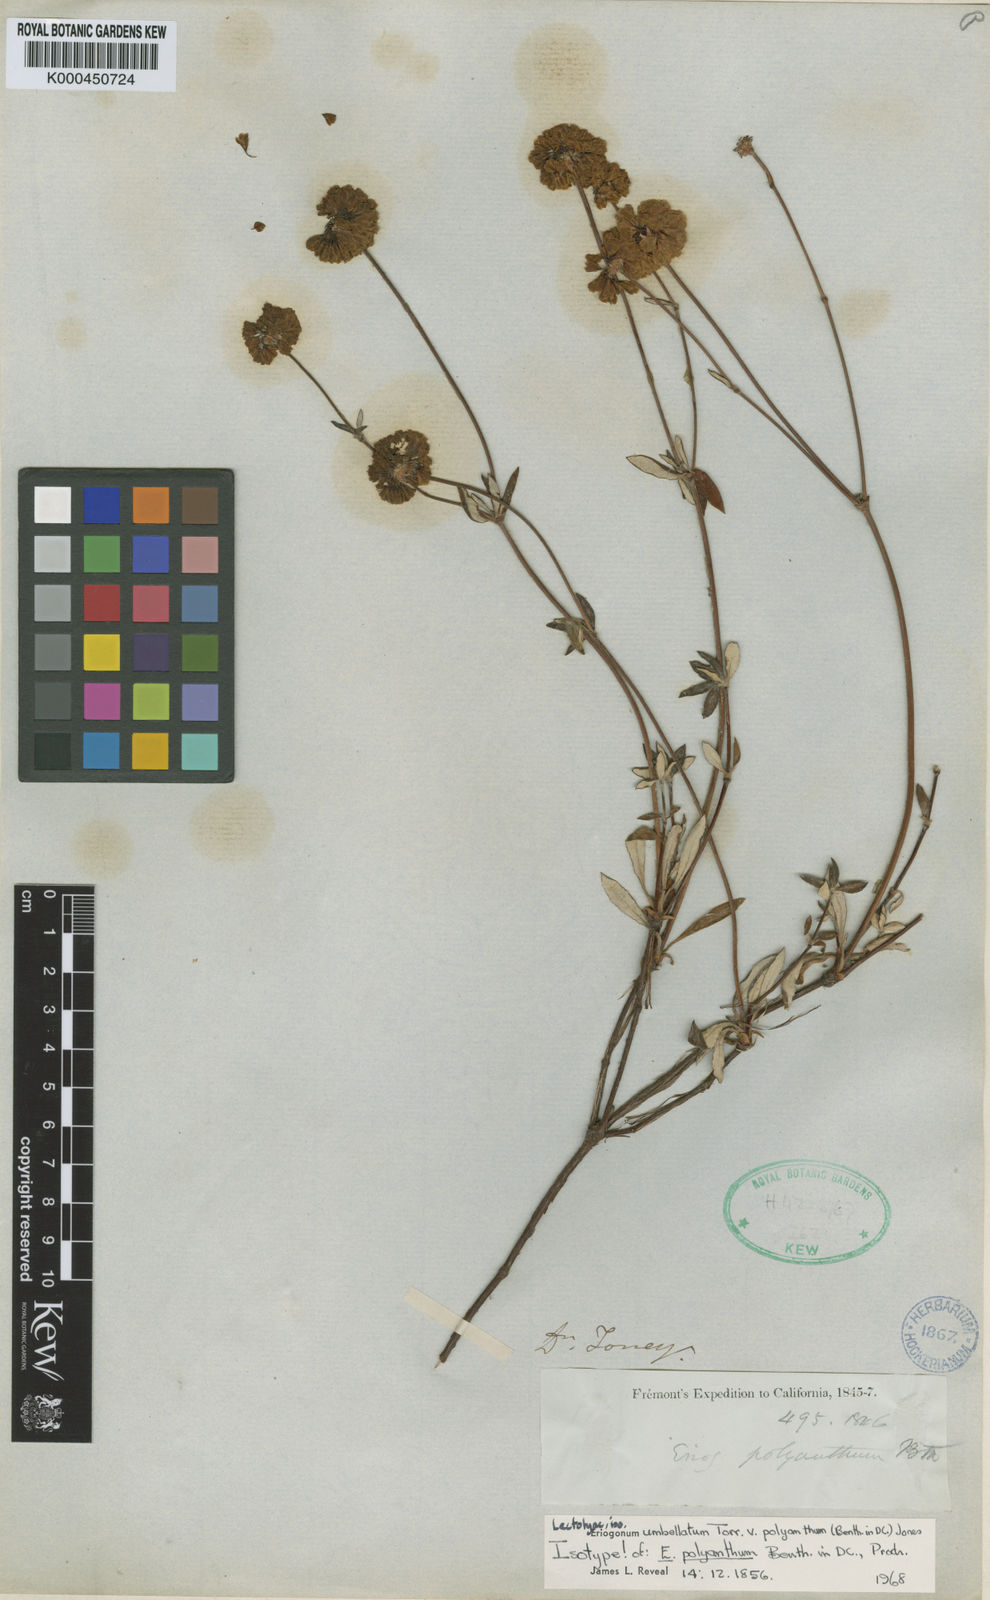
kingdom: Plantae
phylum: Tracheophyta
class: Magnoliopsida
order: Caryophyllales
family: Polygonaceae
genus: Eriogonum
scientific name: Eriogonum umbellatum
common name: Sulfur-buckwheat
